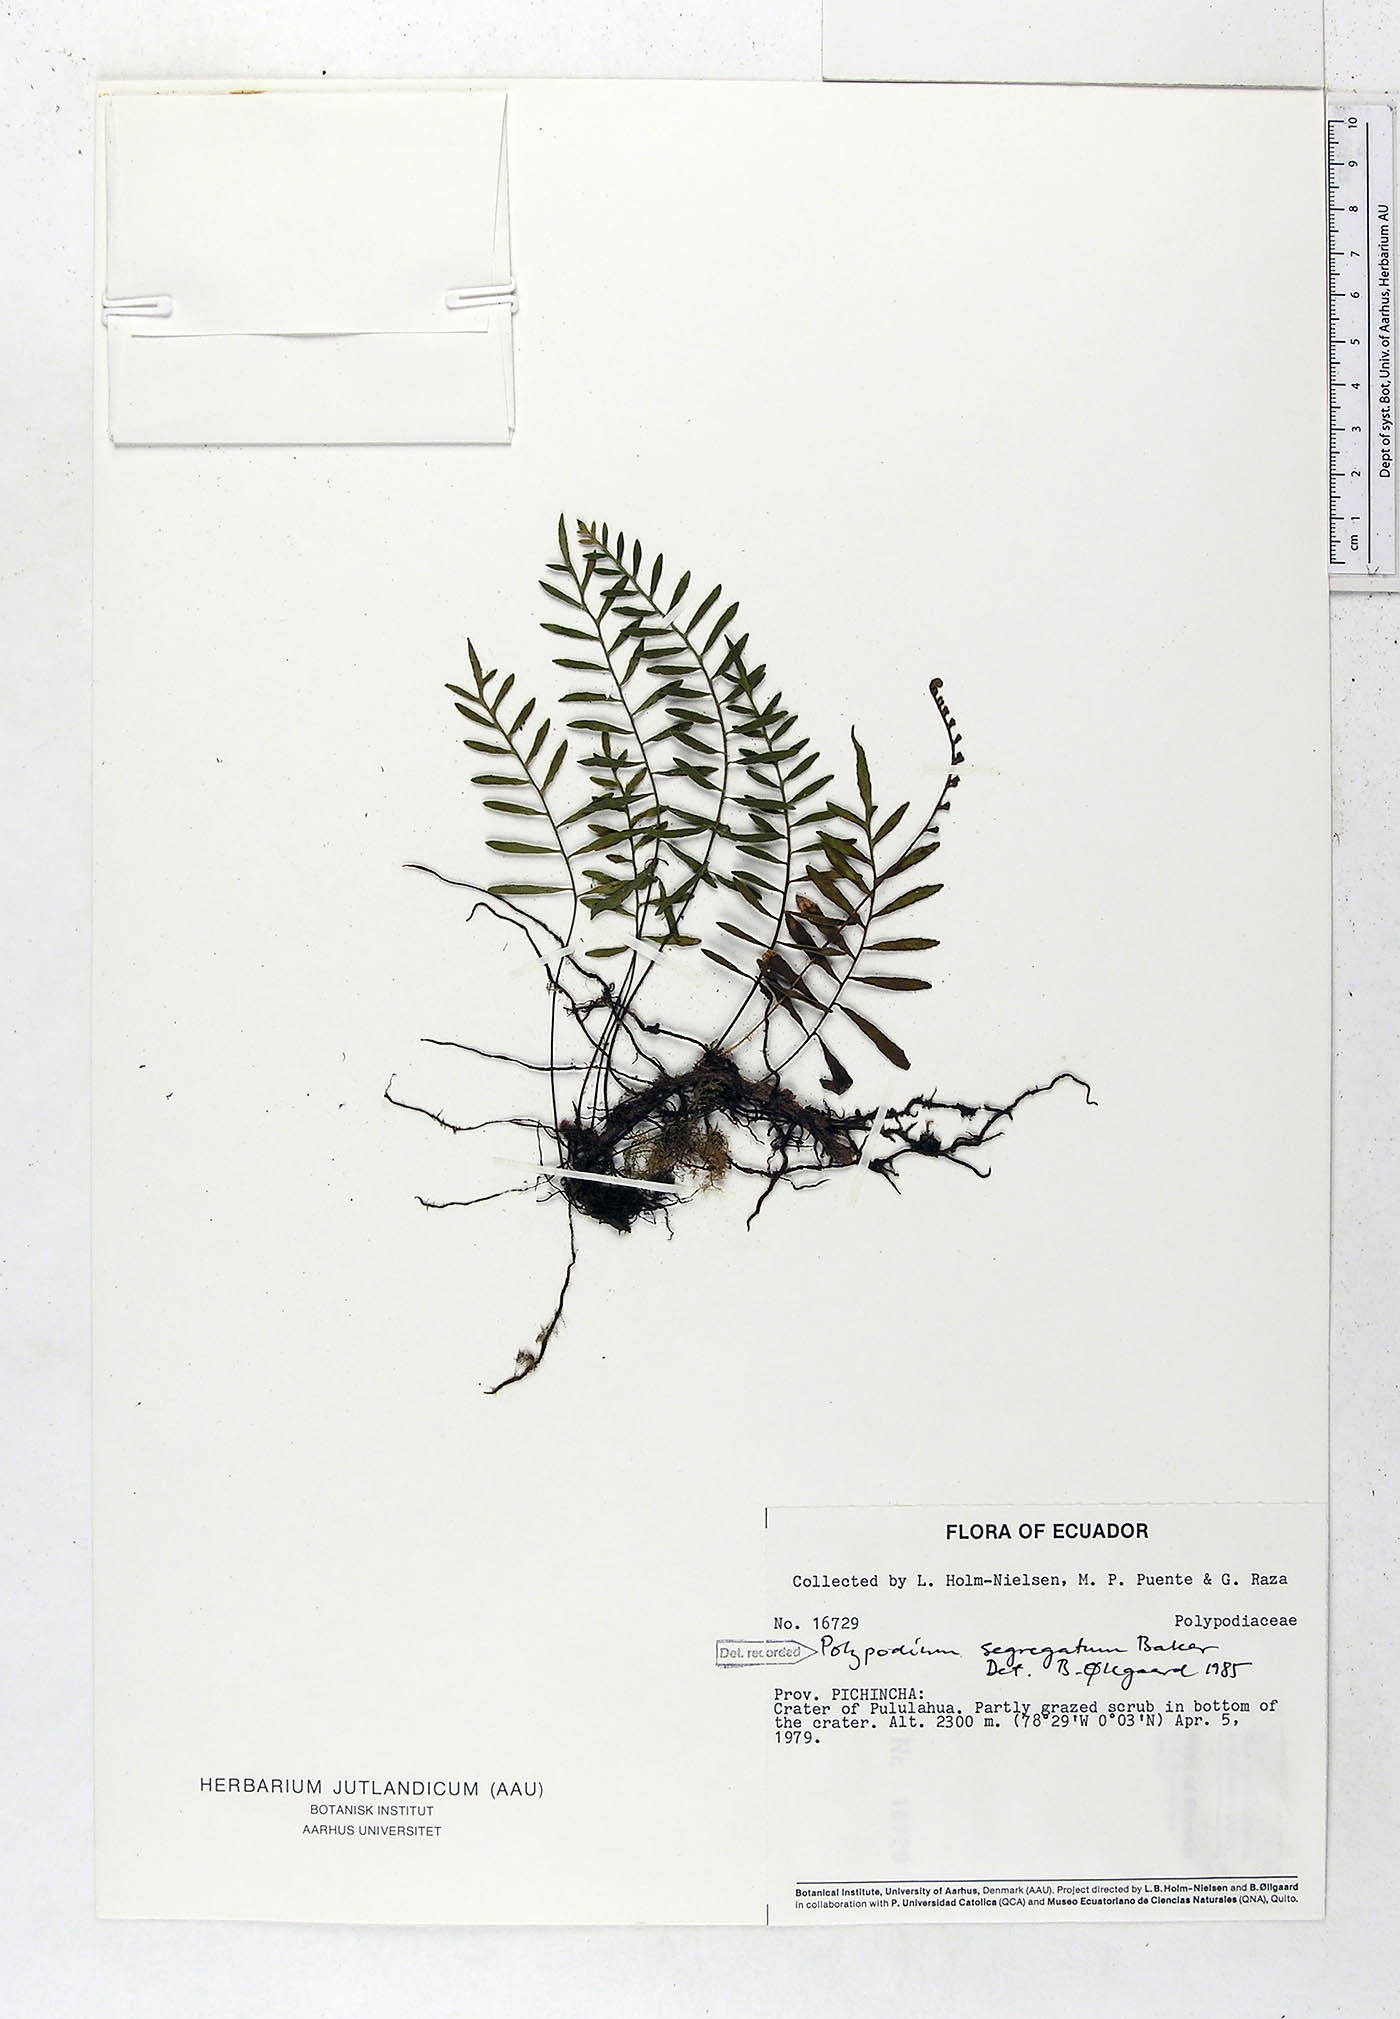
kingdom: Plantae
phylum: Tracheophyta
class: Polypodiopsida
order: Polypodiales
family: Polypodiaceae
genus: Pleopeltis
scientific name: Pleopeltis segregata
